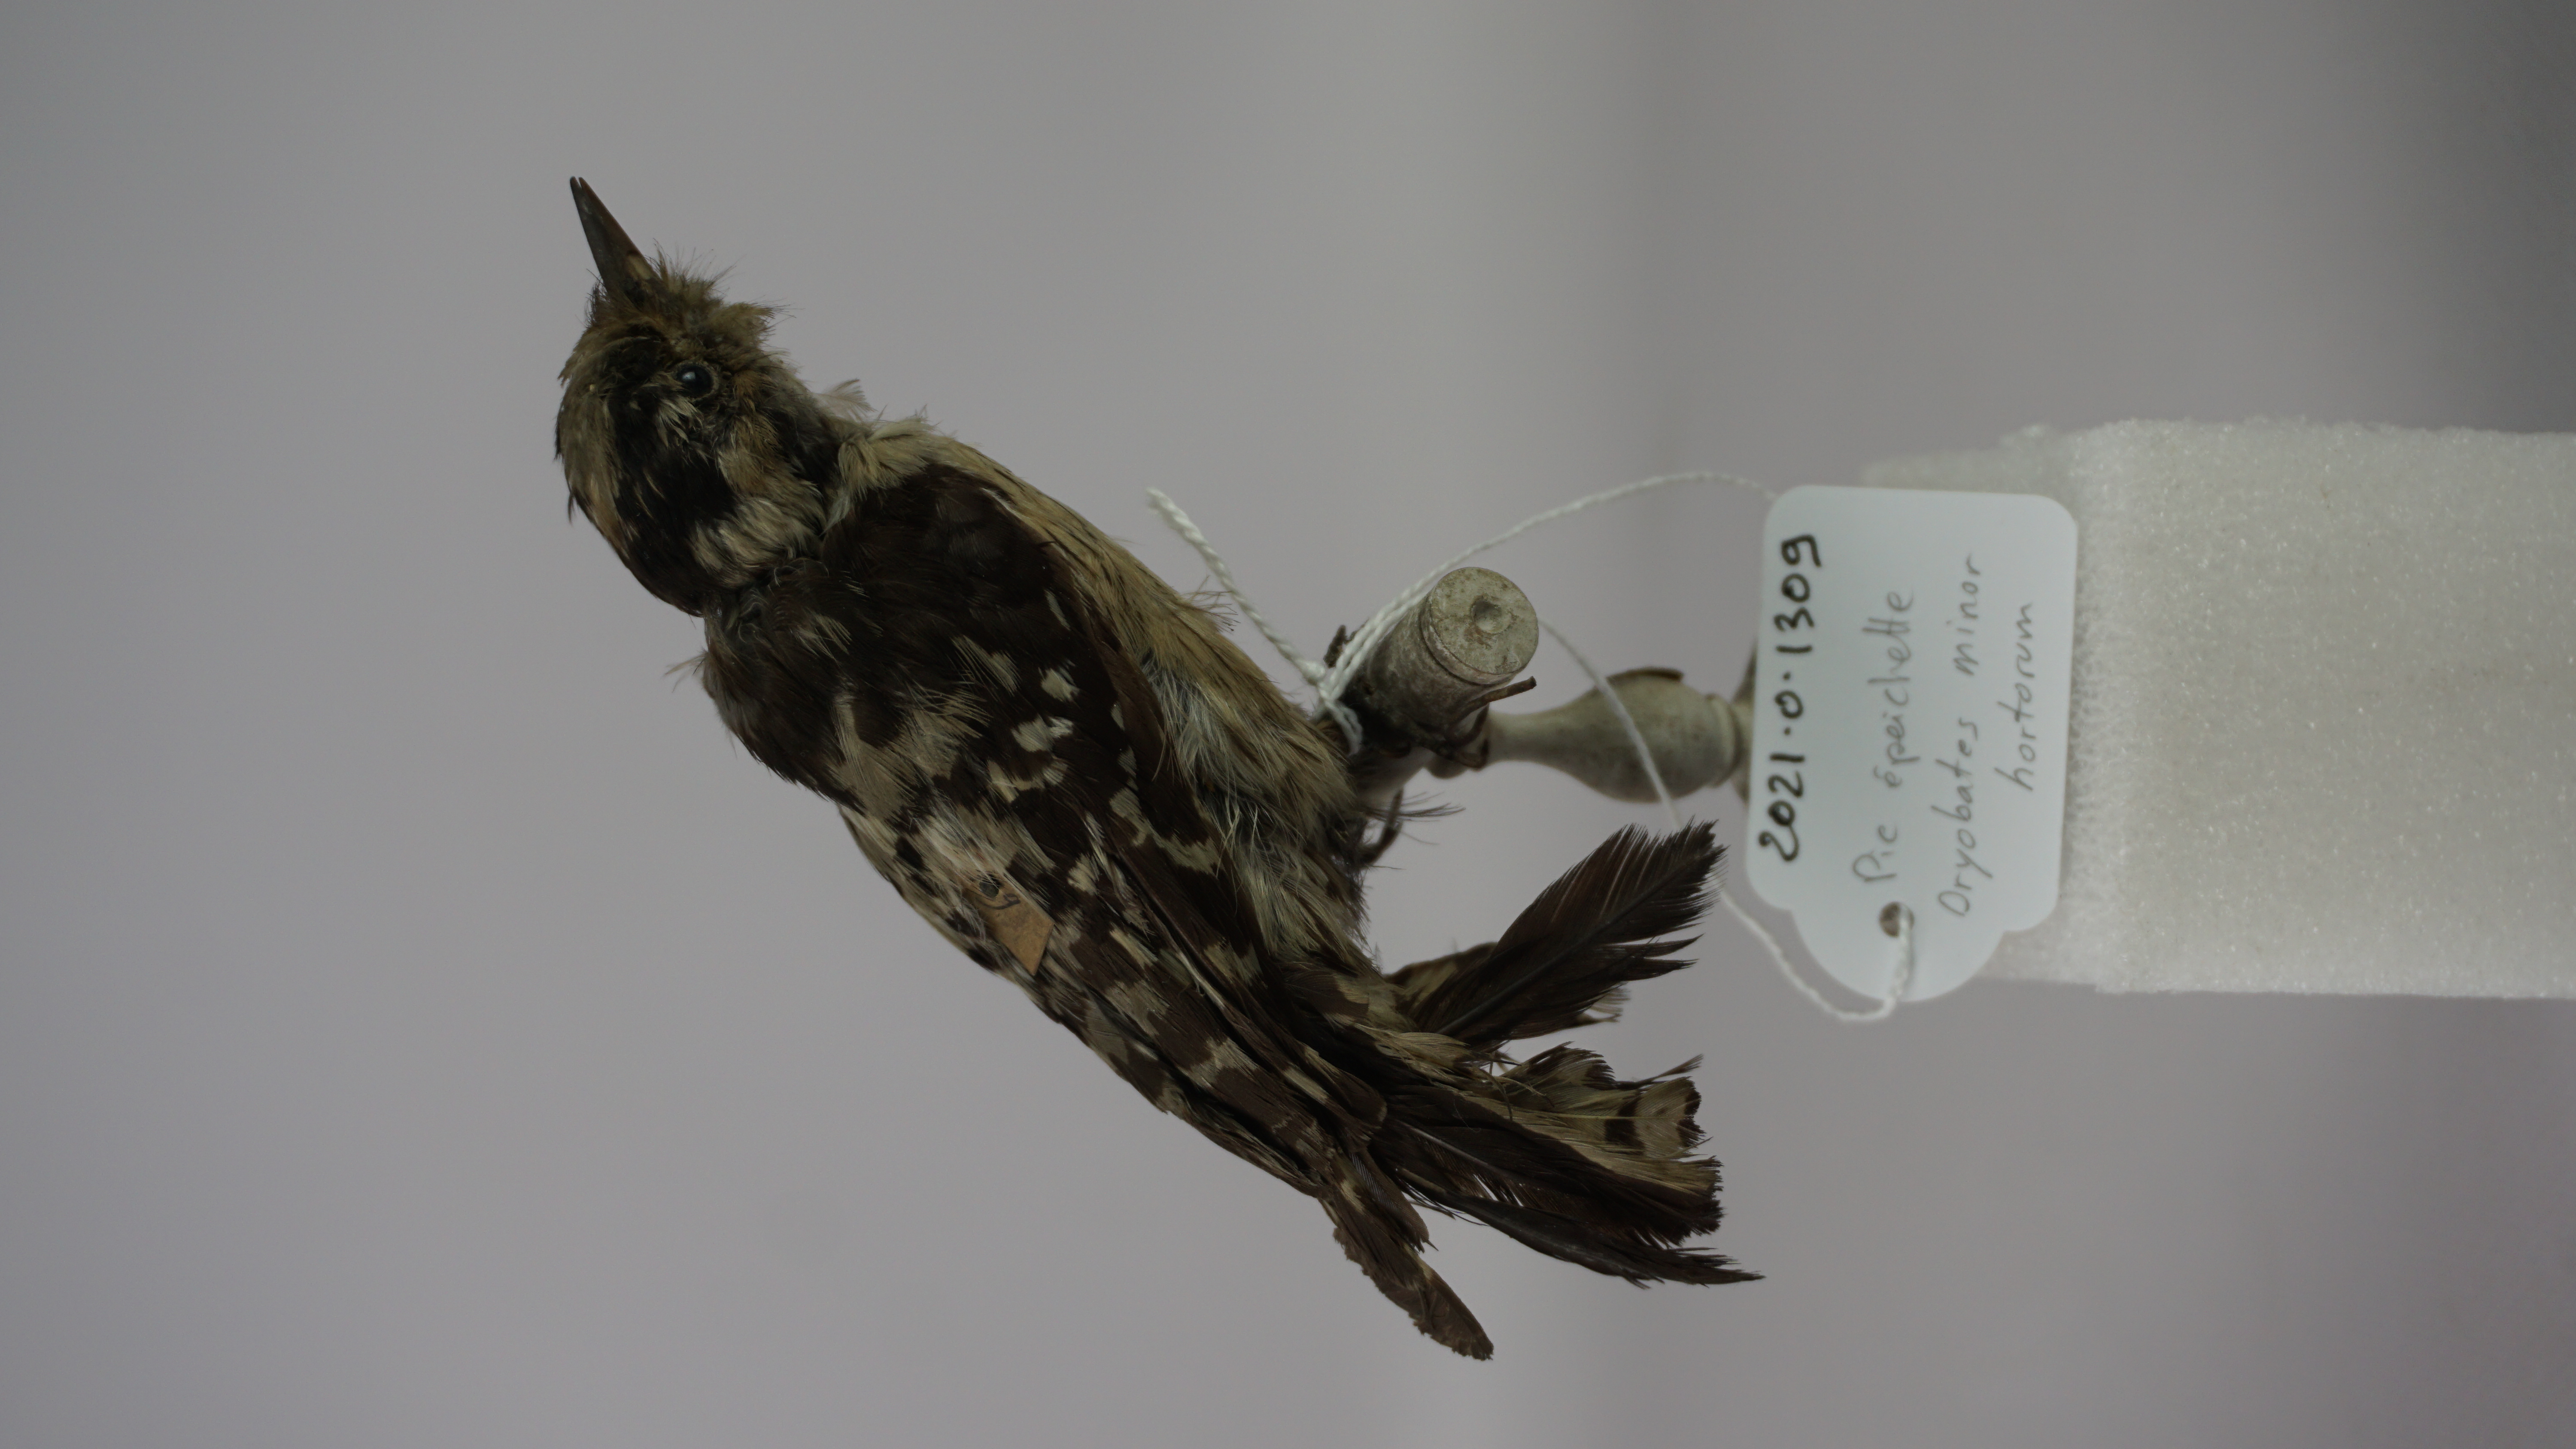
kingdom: Animalia
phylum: Chordata
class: Aves
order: Piciformes
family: Picidae
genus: Dryobates
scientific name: Dryobates minor
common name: Lesser spotted woodpecker
